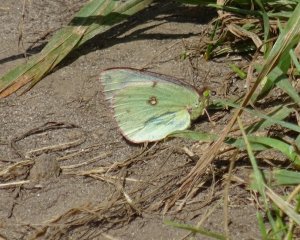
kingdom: Animalia
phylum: Arthropoda
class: Insecta
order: Lepidoptera
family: Pieridae
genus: Colias
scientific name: Colias philodice
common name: Clouded Sulphur
